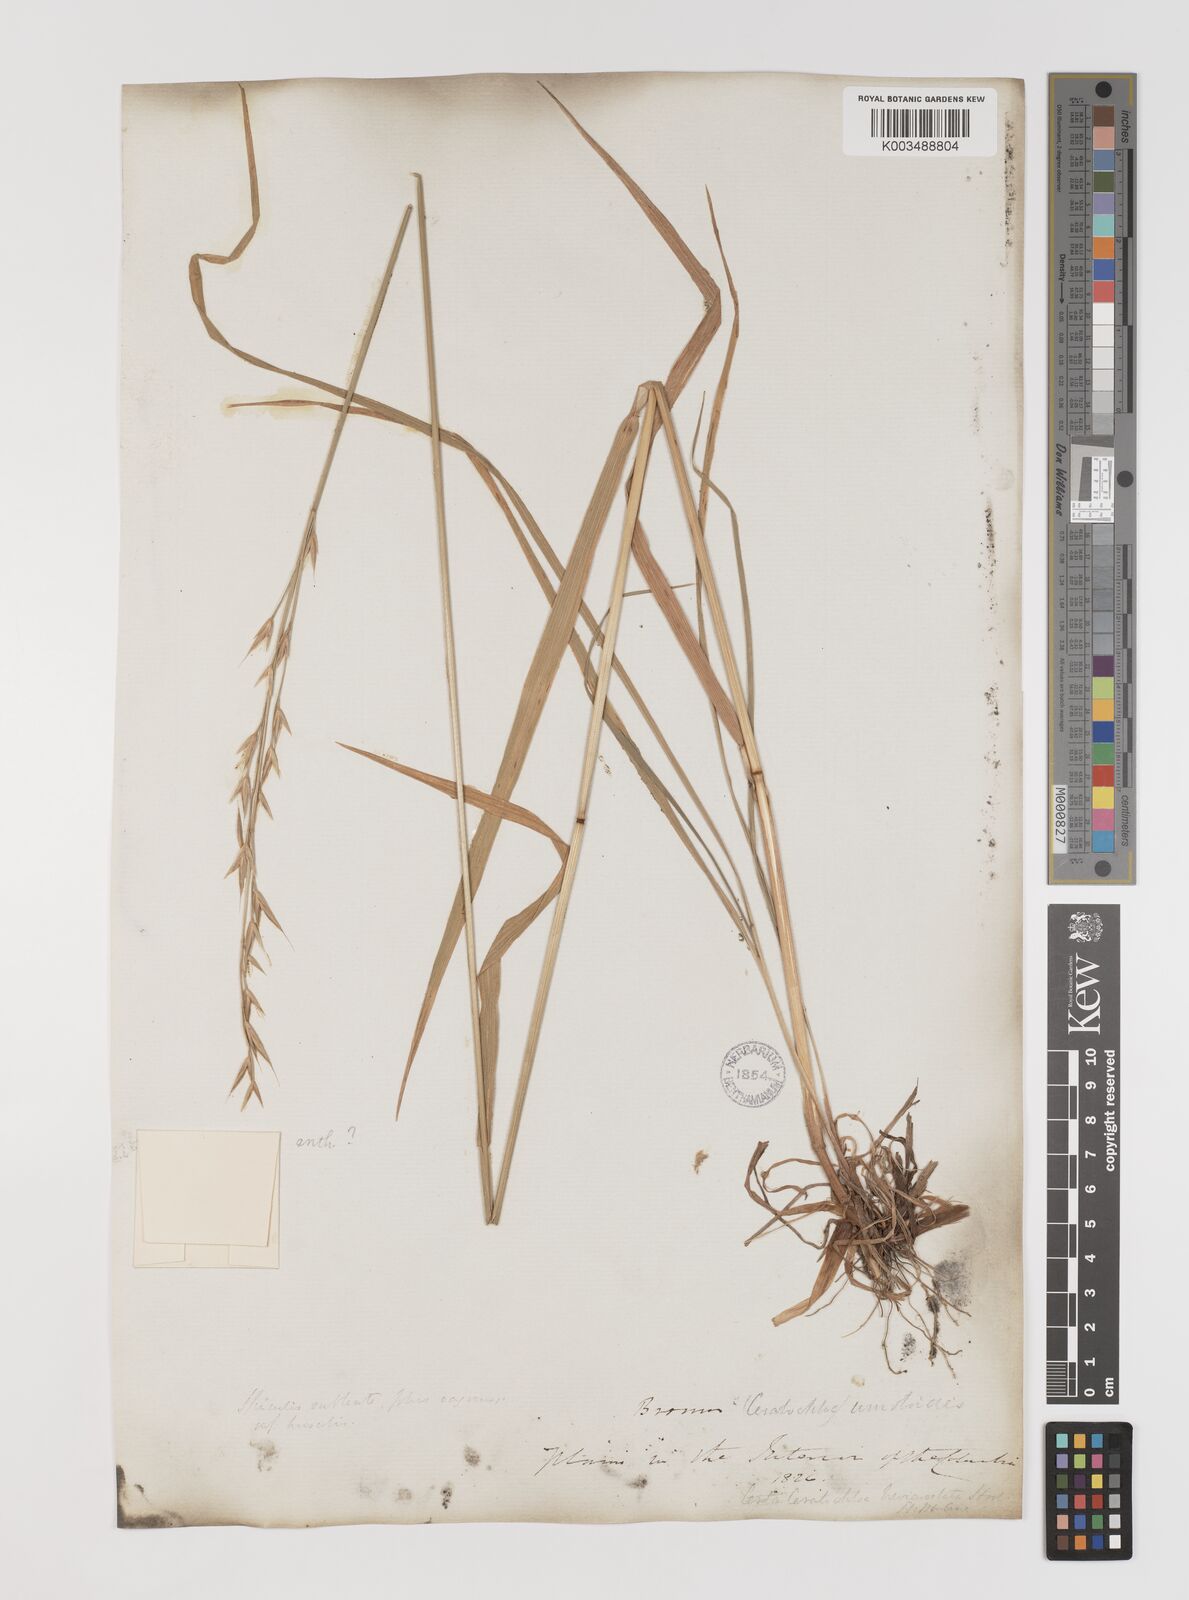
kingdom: Plantae
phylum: Tracheophyta
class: Liliopsida
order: Poales
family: Poaceae
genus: Bromus
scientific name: Bromus
